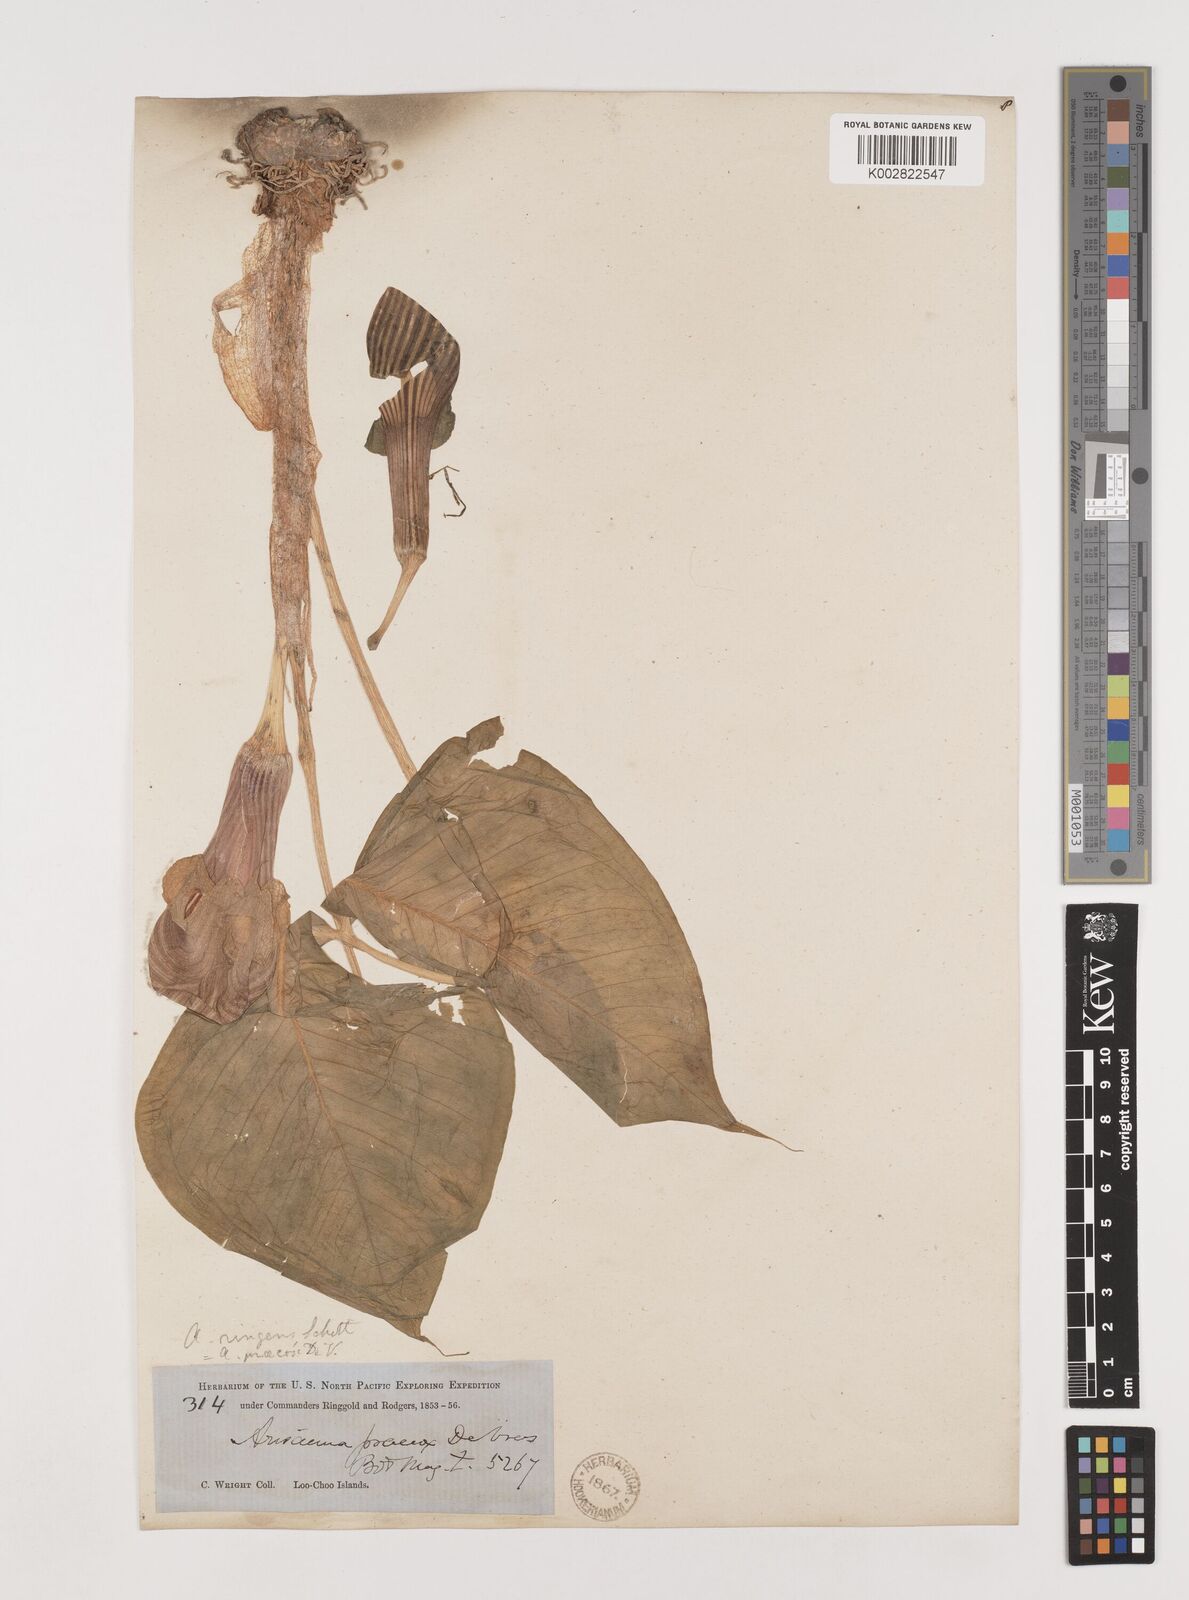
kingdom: Plantae
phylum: Tracheophyta
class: Liliopsida
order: Alismatales
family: Araceae
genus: Arisaema
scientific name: Arisaema ringens
